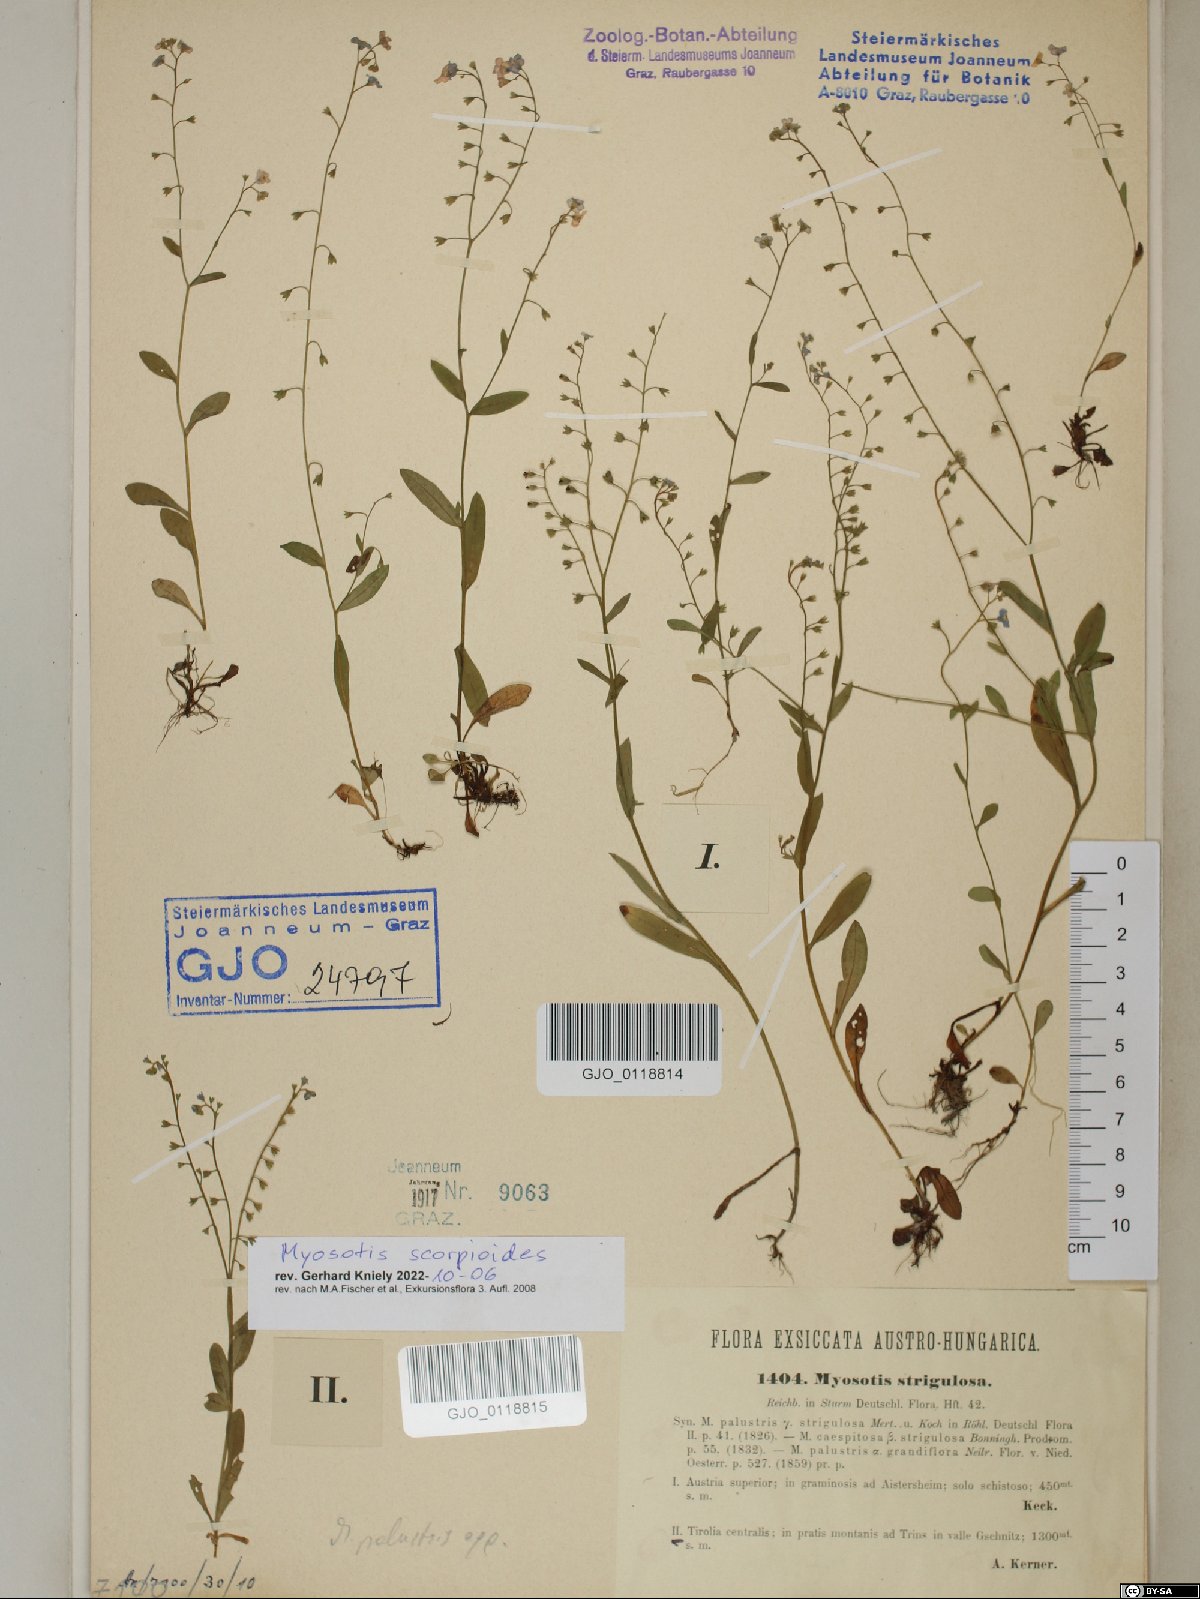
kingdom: Plantae
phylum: Tracheophyta
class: Magnoliopsida
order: Boraginales
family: Boraginaceae
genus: Myosotis
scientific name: Myosotis scorpioides
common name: Water forget-me-not
